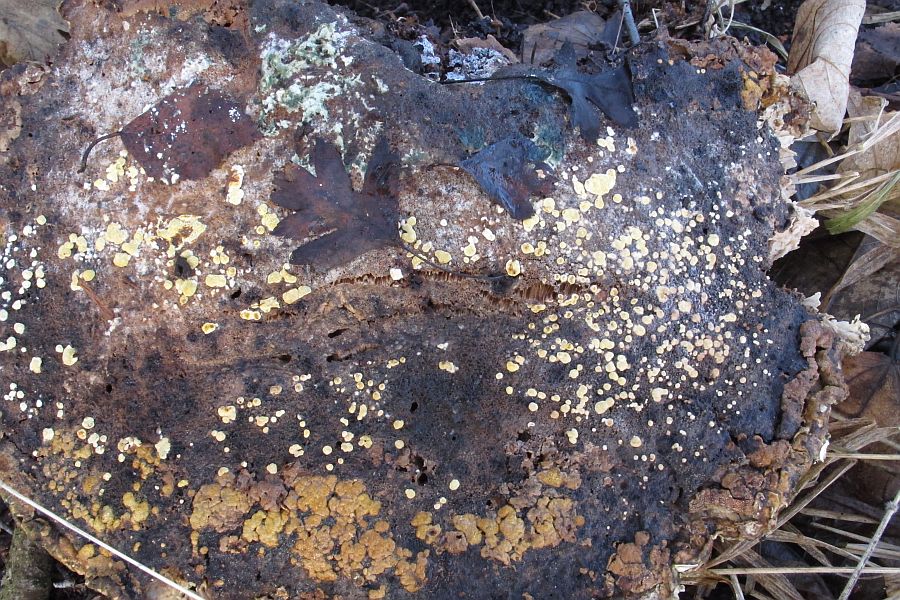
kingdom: Fungi
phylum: Ascomycota
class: Sordariomycetes
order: Hypocreales
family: Hypocreaceae
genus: Trichoderma
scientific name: Trichoderma pulvinatum
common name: snyltende kødkerne
